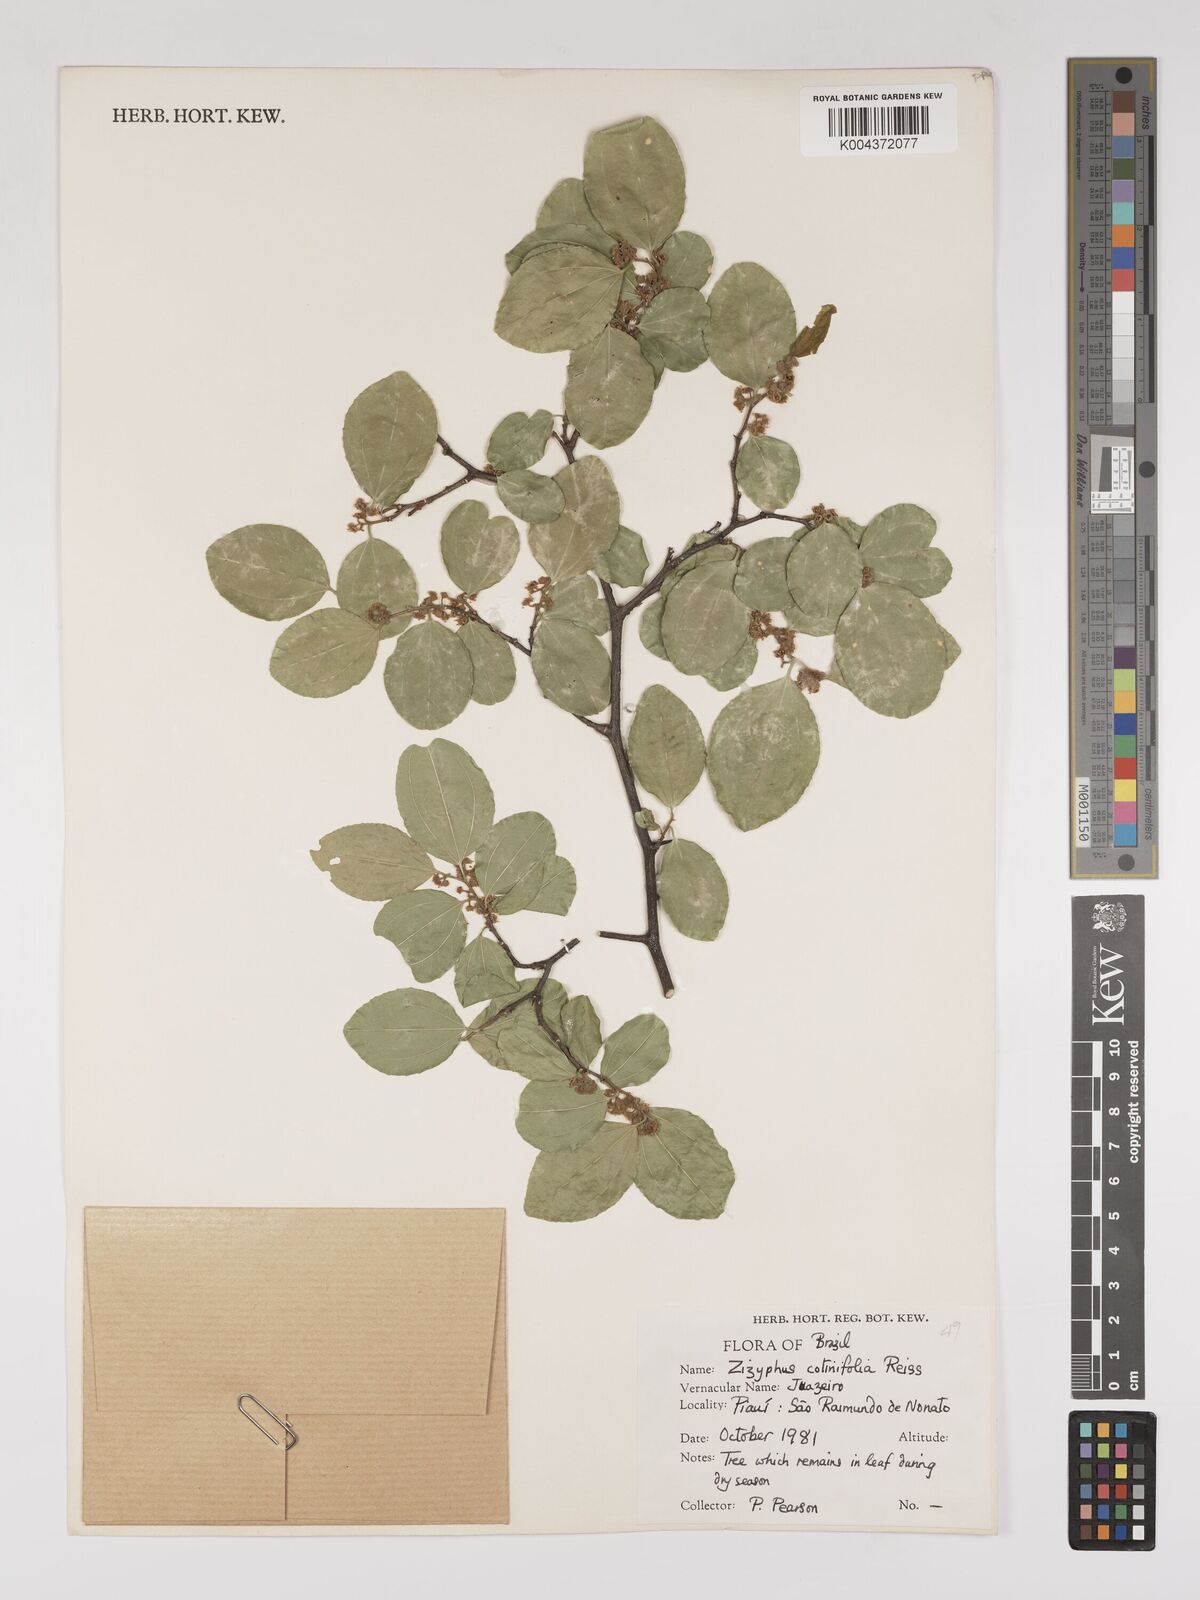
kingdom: Plantae
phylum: Tracheophyta
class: Magnoliopsida
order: Rosales
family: Rhamnaceae
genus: Sarcomphalus
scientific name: Sarcomphalus cotinifolius
